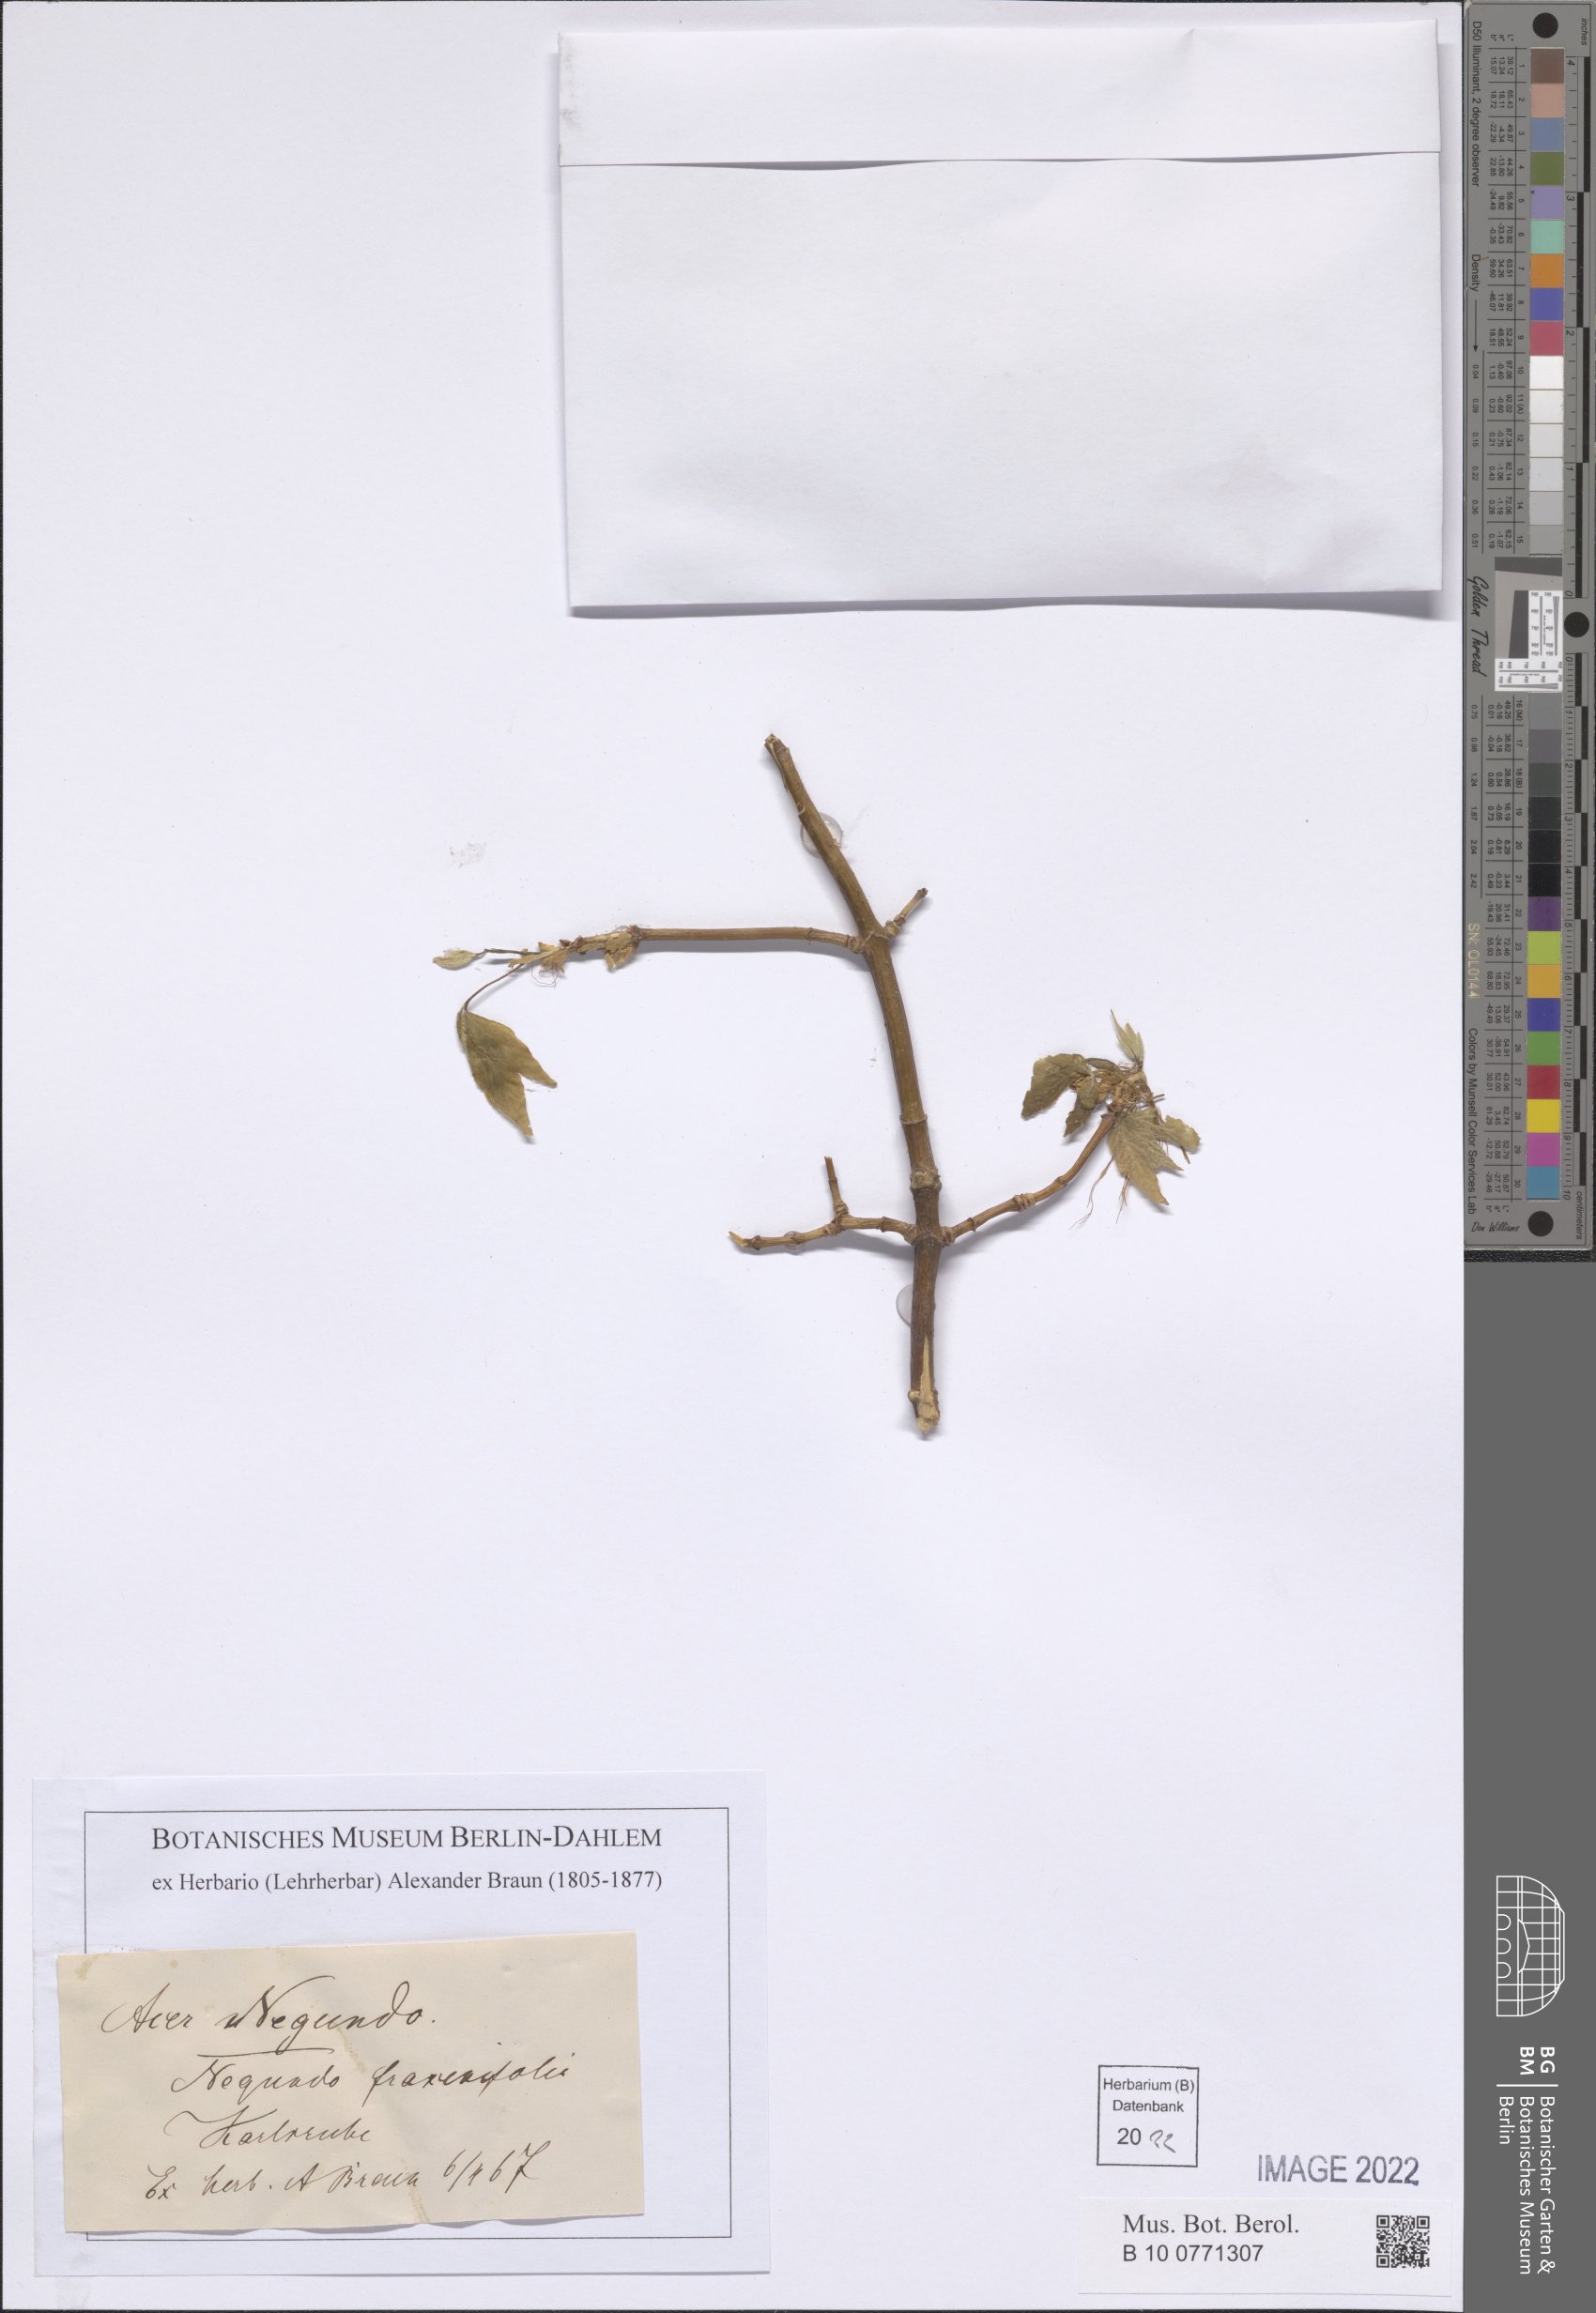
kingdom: Plantae
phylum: Tracheophyta
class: Magnoliopsida
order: Sapindales
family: Sapindaceae
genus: Acer
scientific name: Acer negundo
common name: Ashleaf maple
